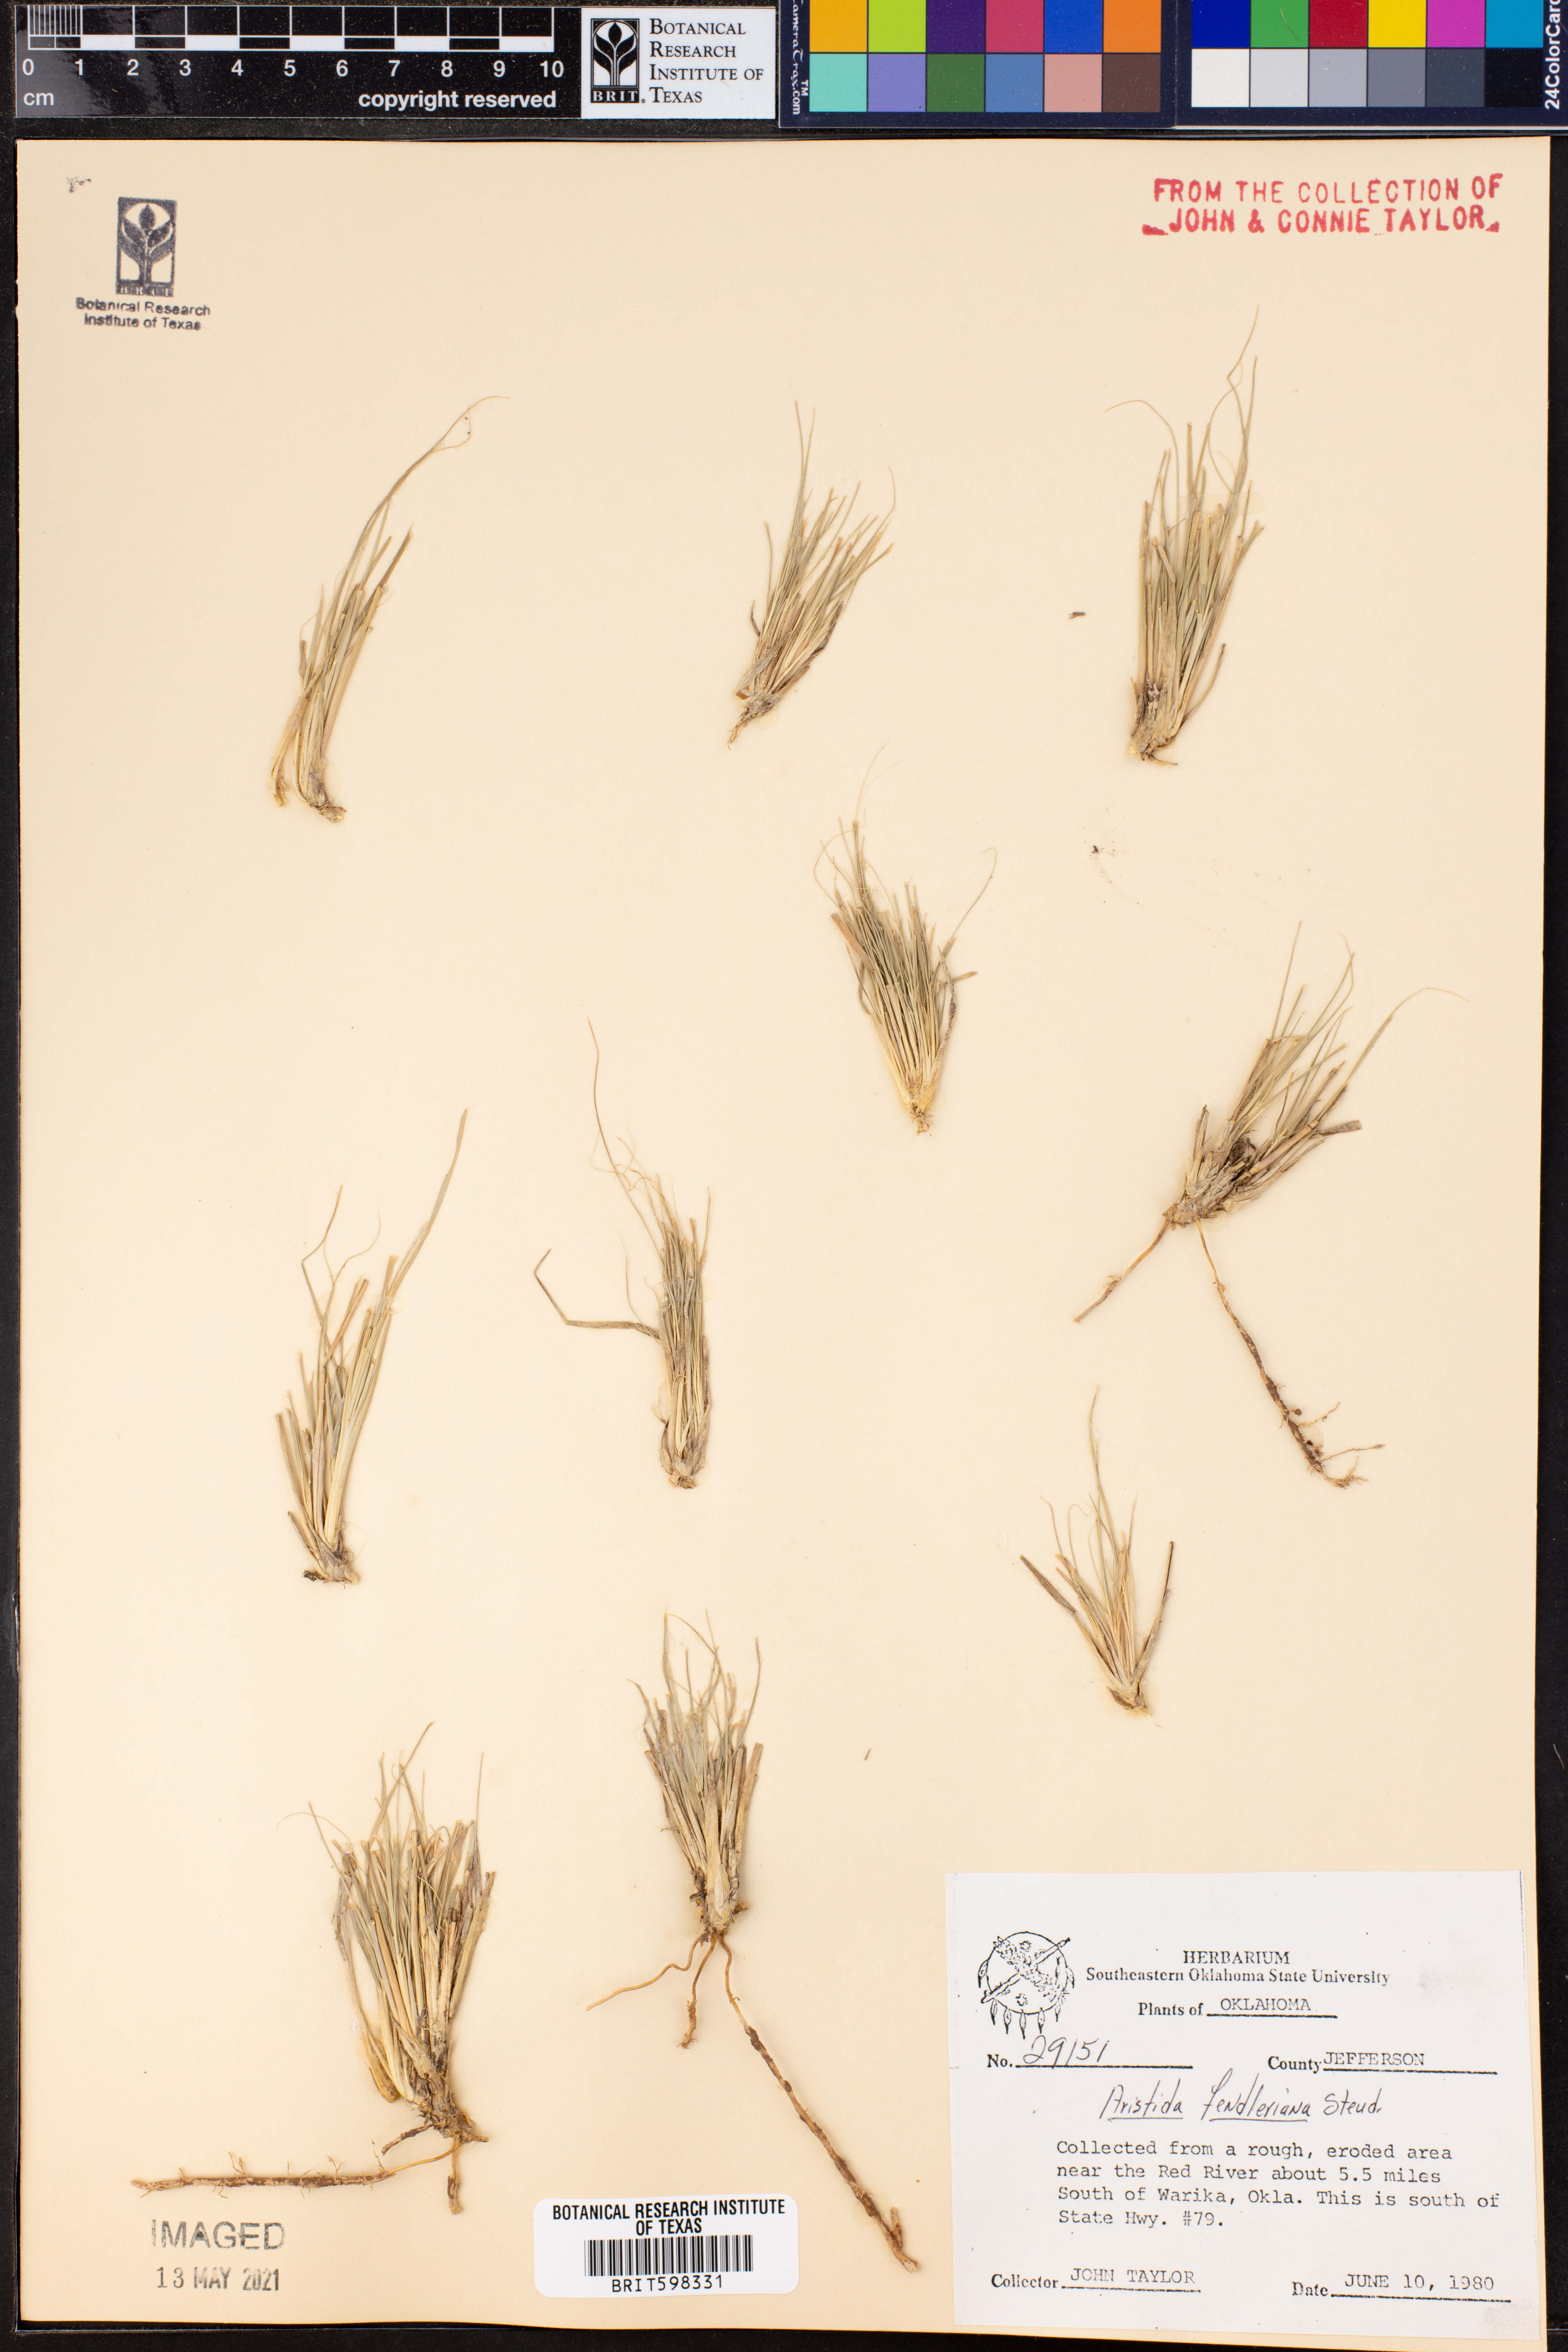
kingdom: Plantae
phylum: Tracheophyta
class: Liliopsida
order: Poales
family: Poaceae
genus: Aristida
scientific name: Aristida fendleriana
